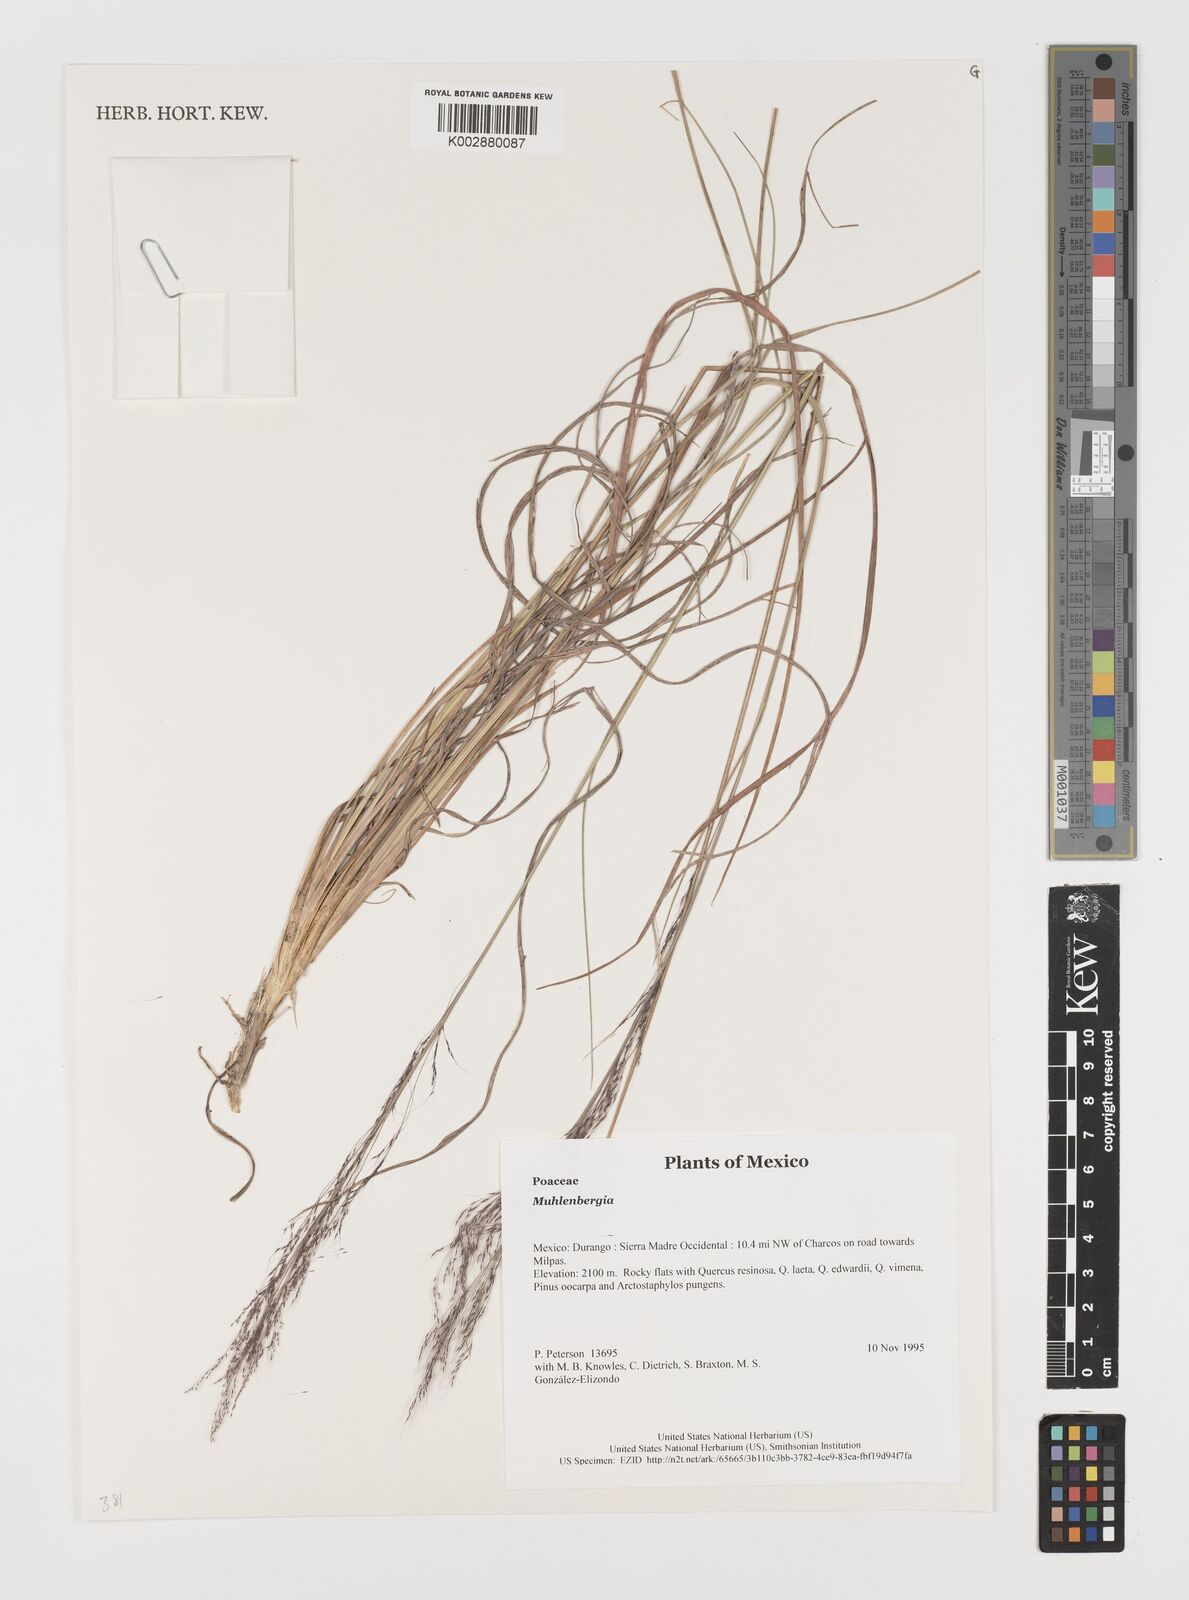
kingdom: Plantae
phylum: Tracheophyta
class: Liliopsida
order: Poales
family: Poaceae
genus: Muhlenbergia
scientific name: Muhlenbergia
